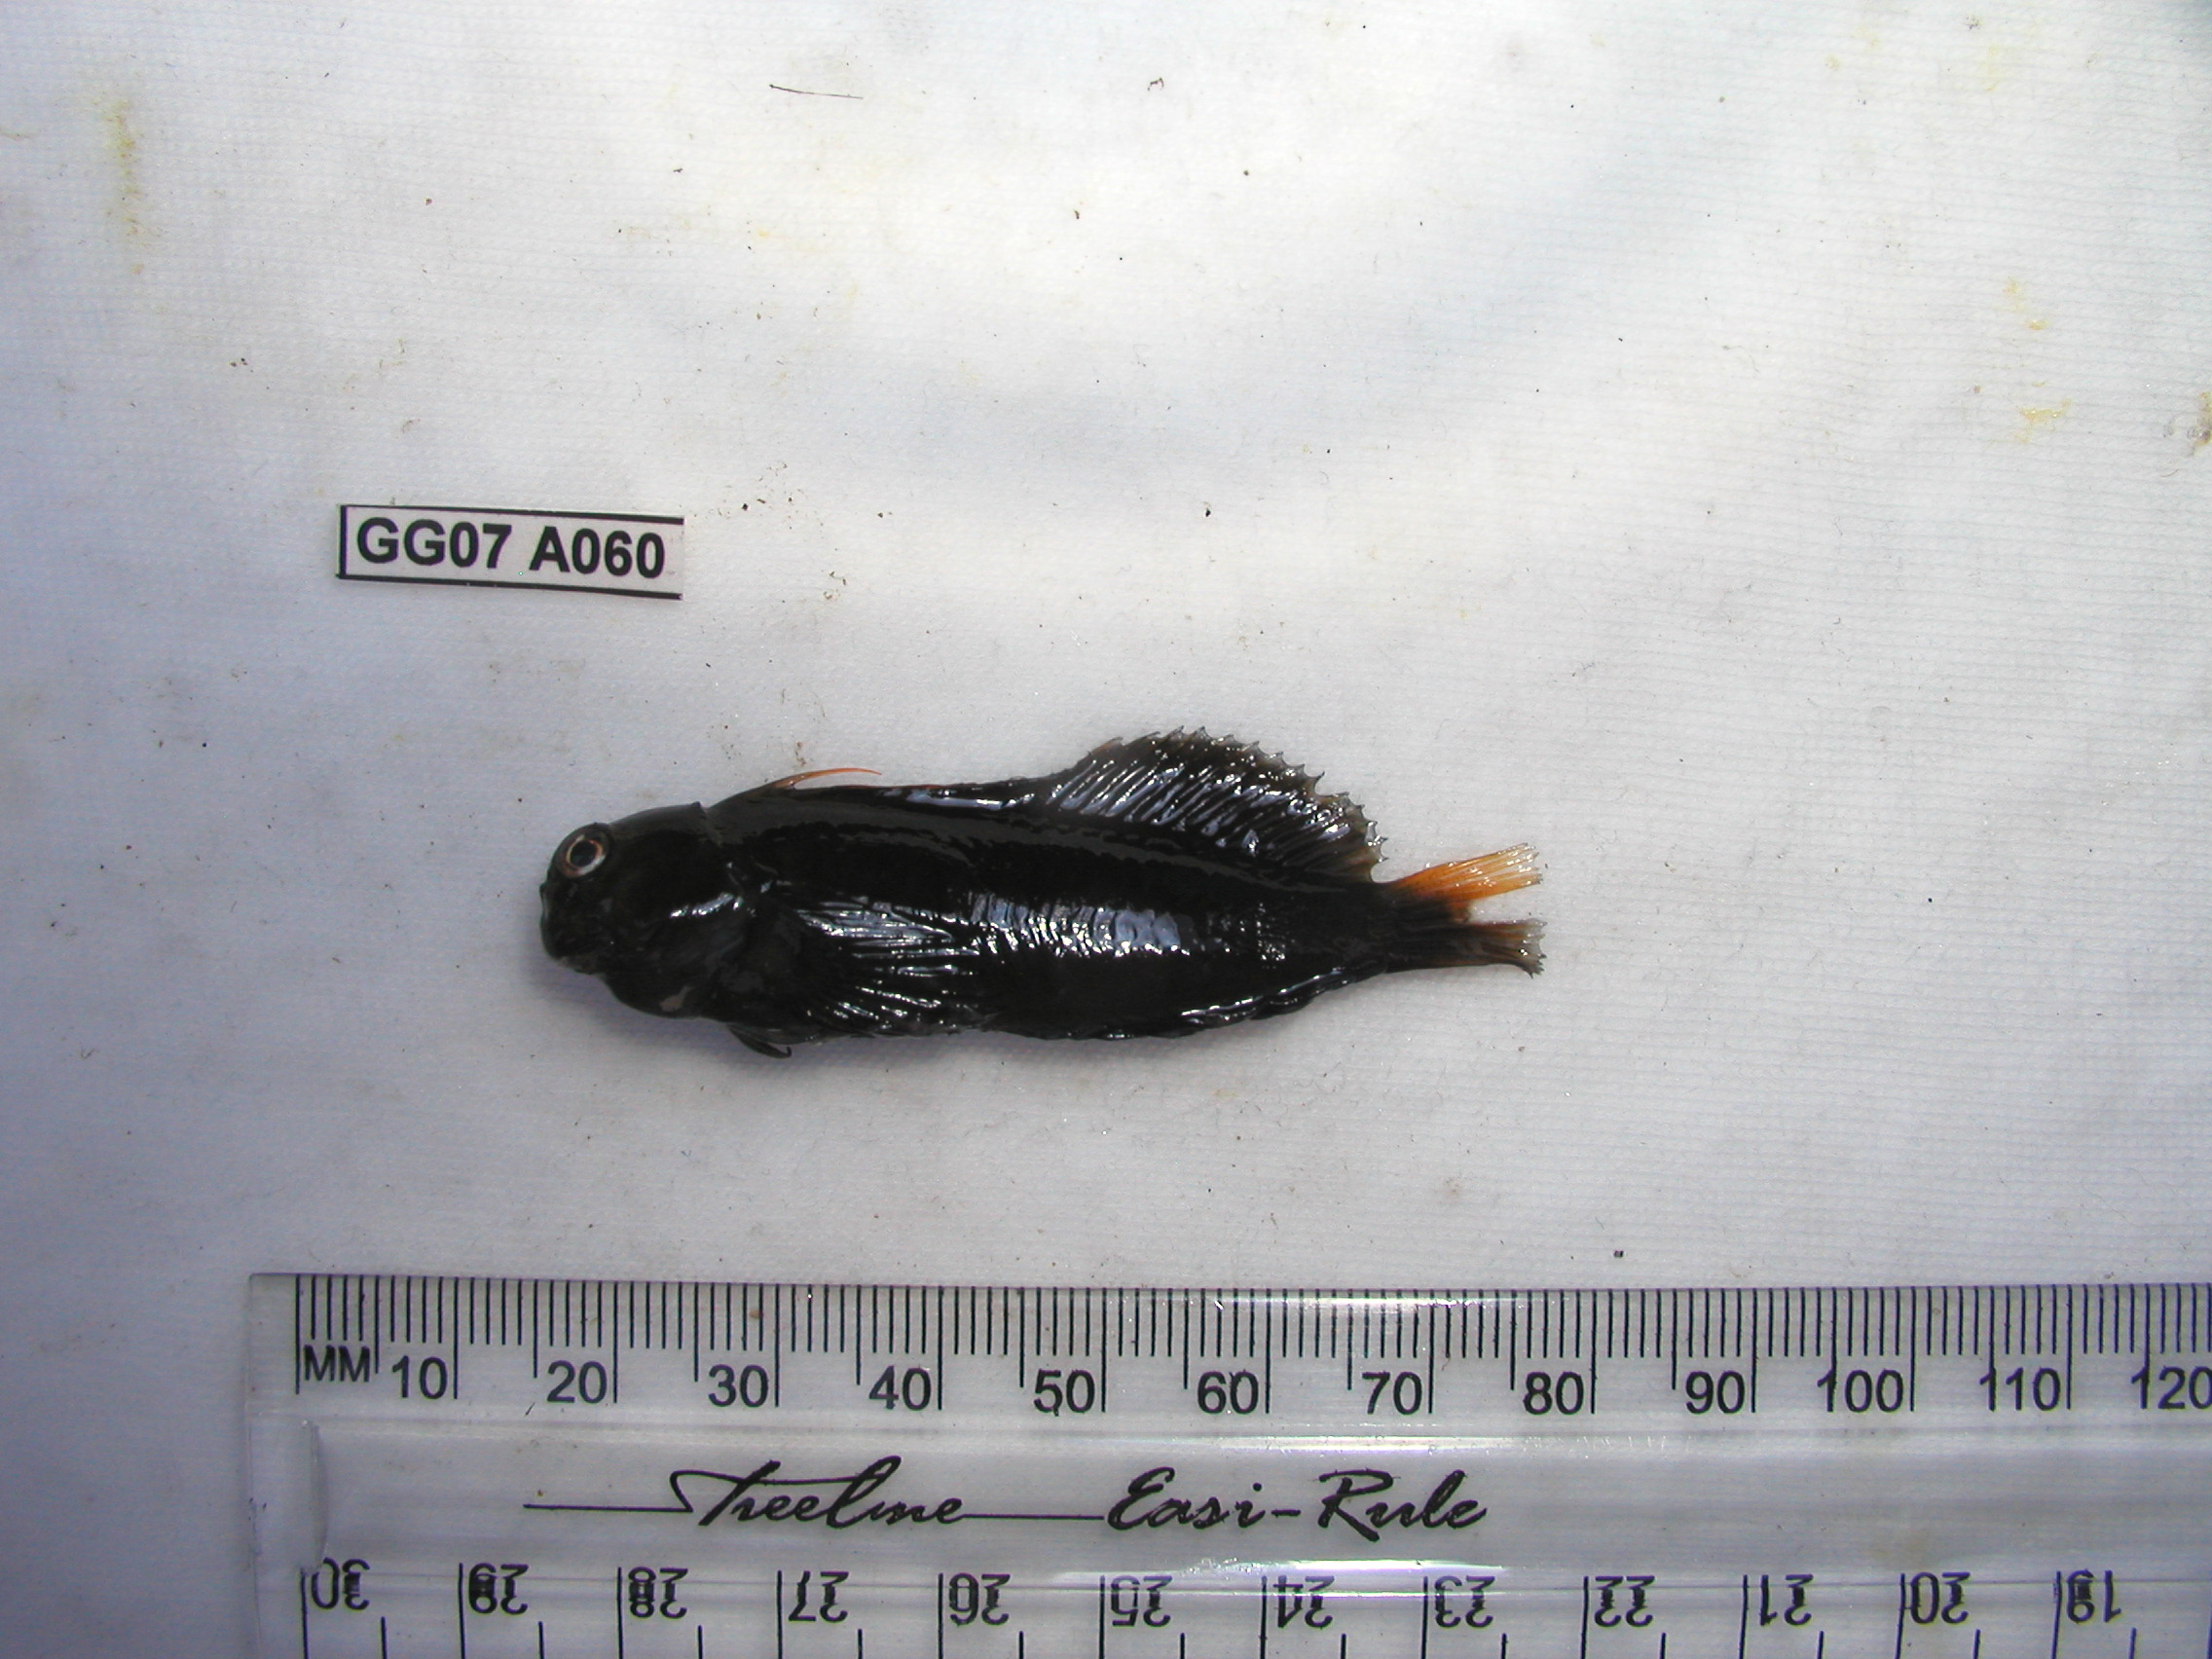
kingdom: Animalia
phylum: Chordata
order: Perciformes
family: Blenniidae
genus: Cirripectes
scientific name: Cirripectes castaneus
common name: Chestnut blenny
